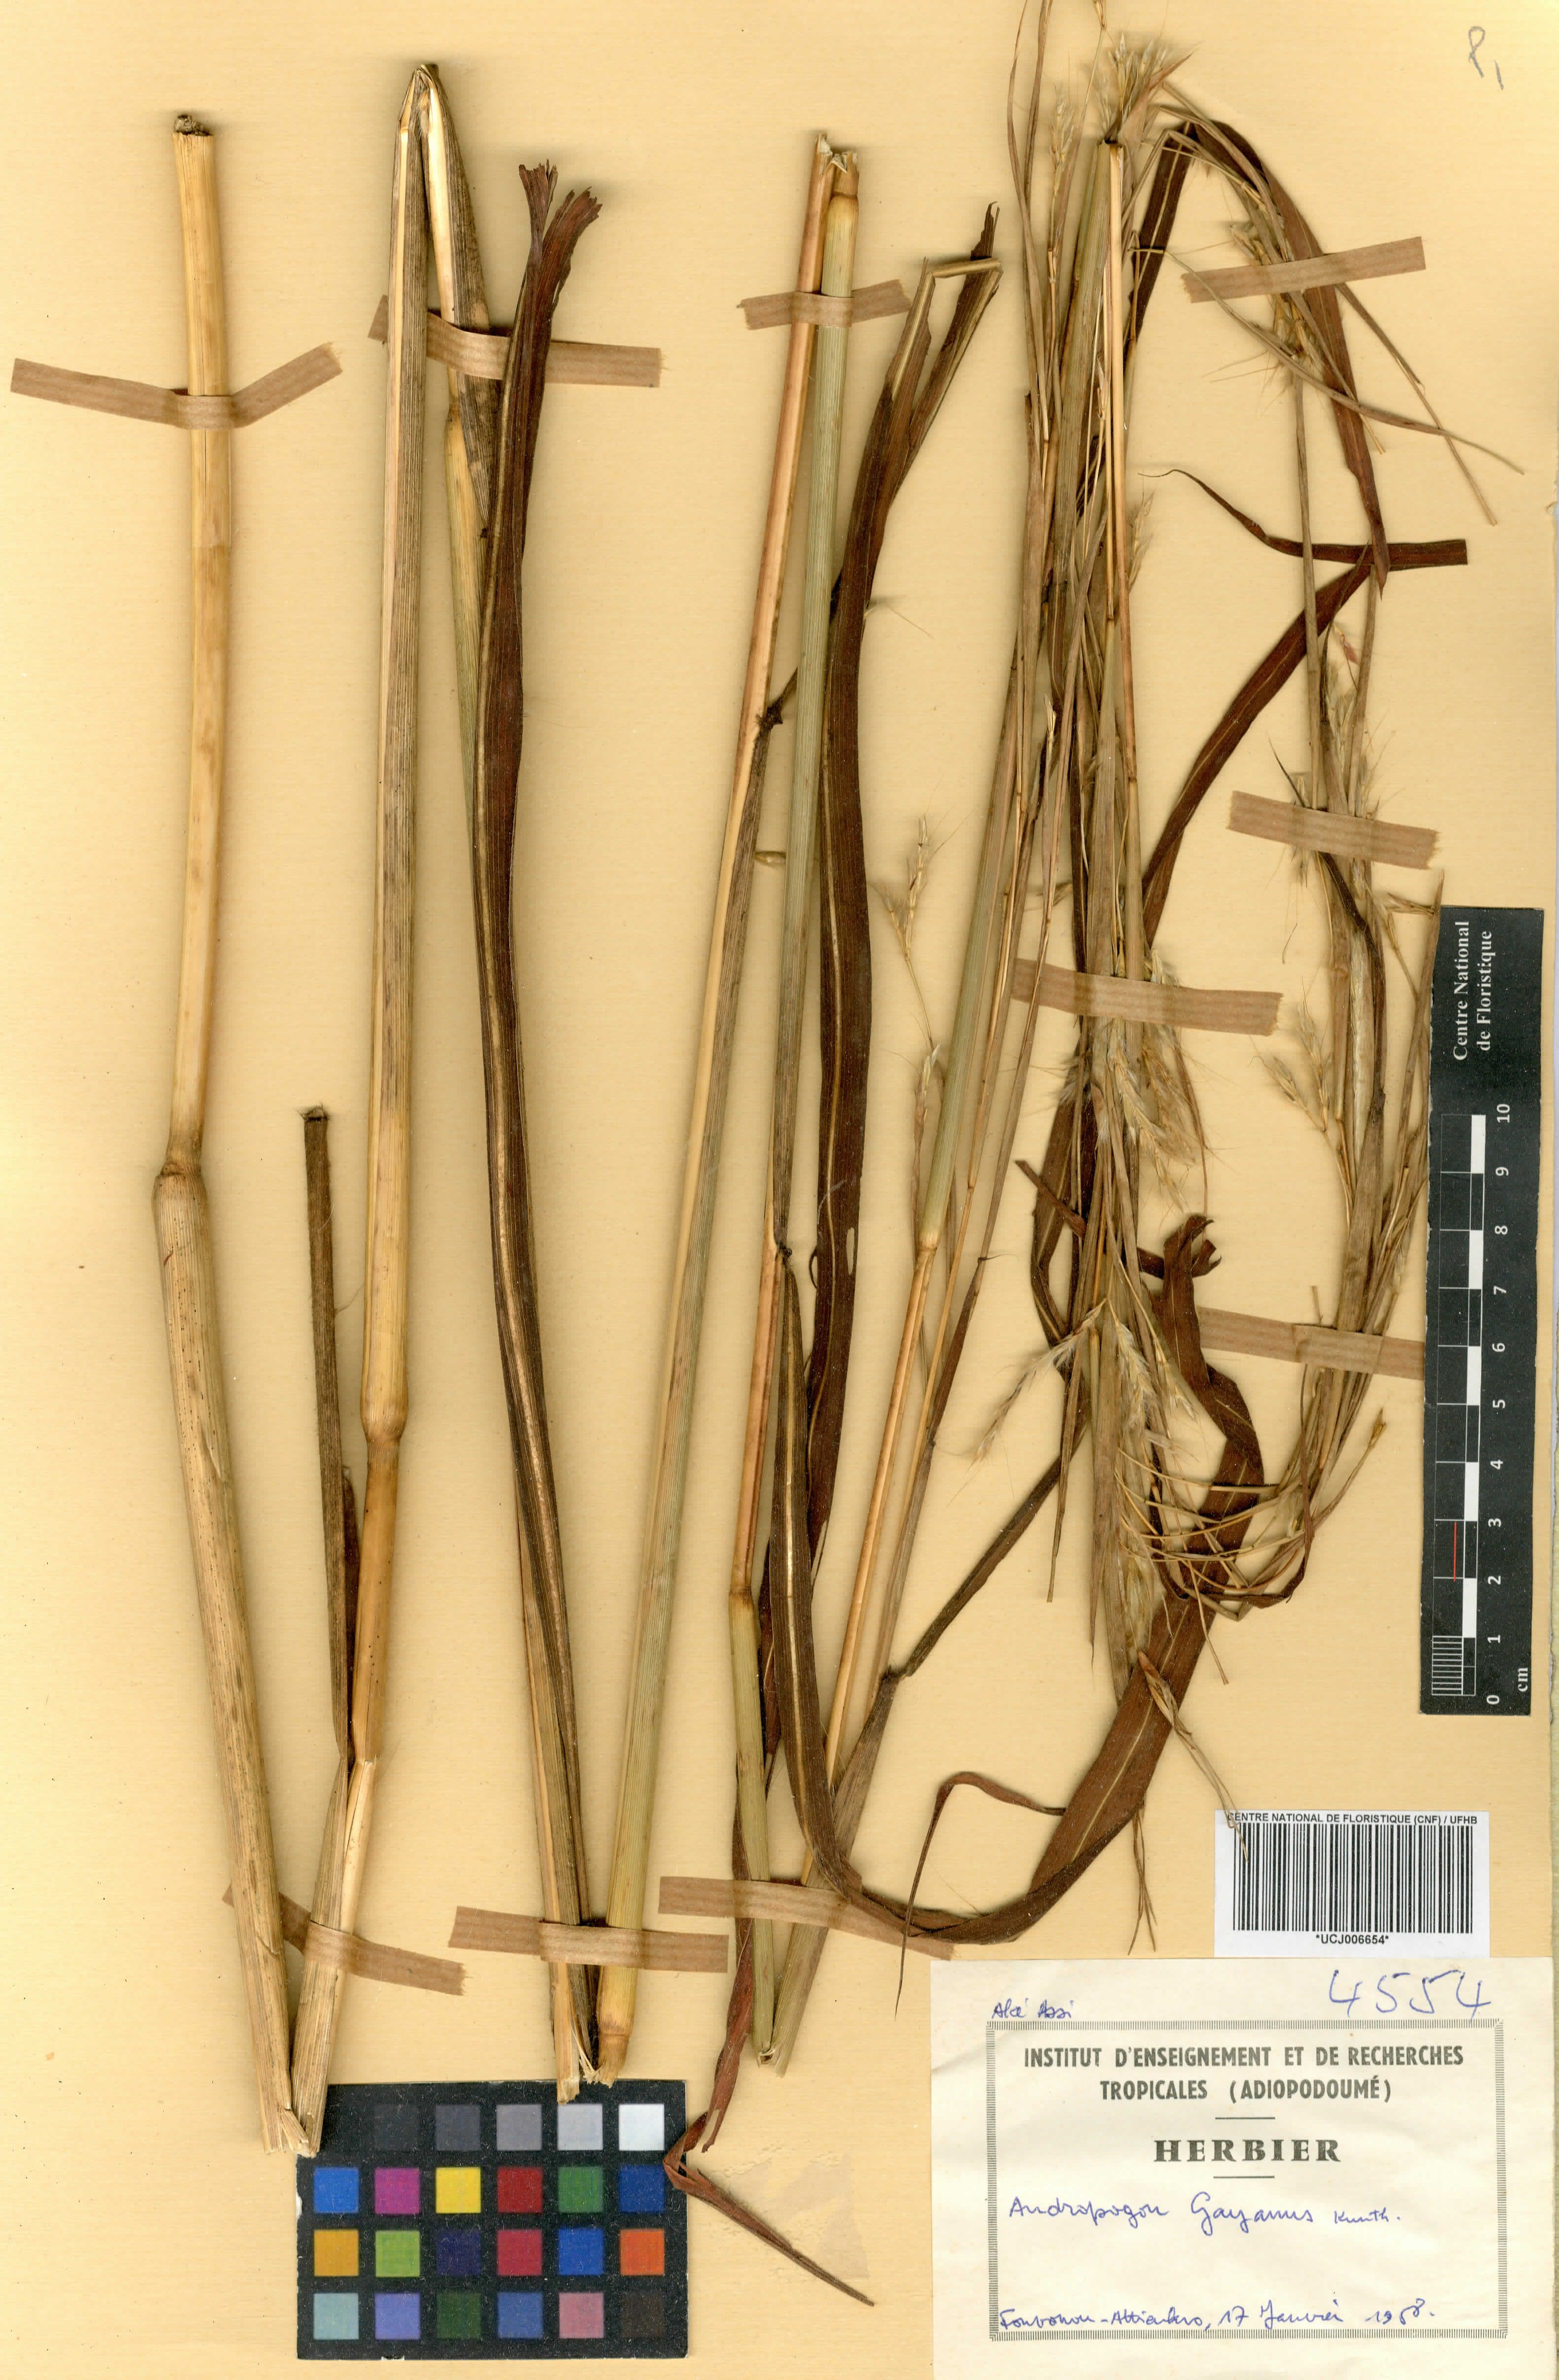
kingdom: Plantae
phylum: Tracheophyta
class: Liliopsida
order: Poales
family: Poaceae
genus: Andropogon
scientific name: Andropogon gayanus
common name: Tambuki grass
